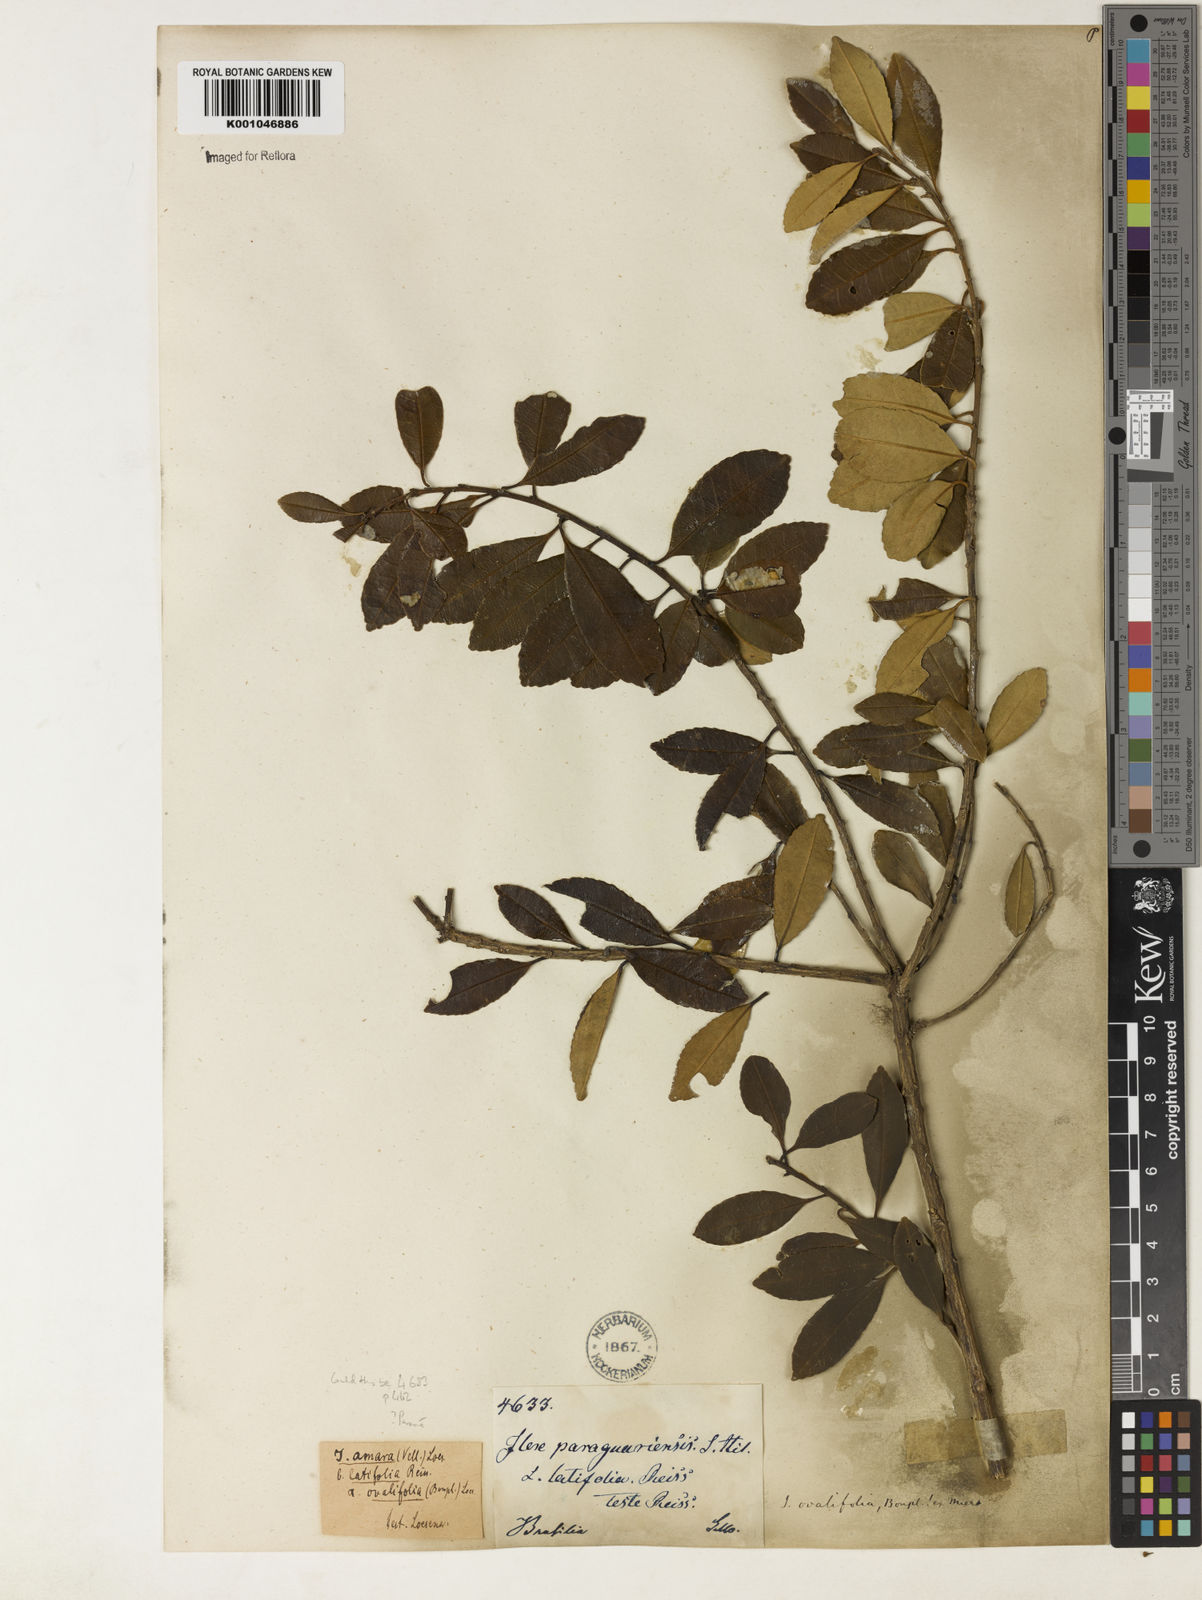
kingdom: Plantae
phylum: Tracheophyta
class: Magnoliopsida
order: Aquifoliales
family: Aquifoliaceae
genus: Ilex
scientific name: Ilex
